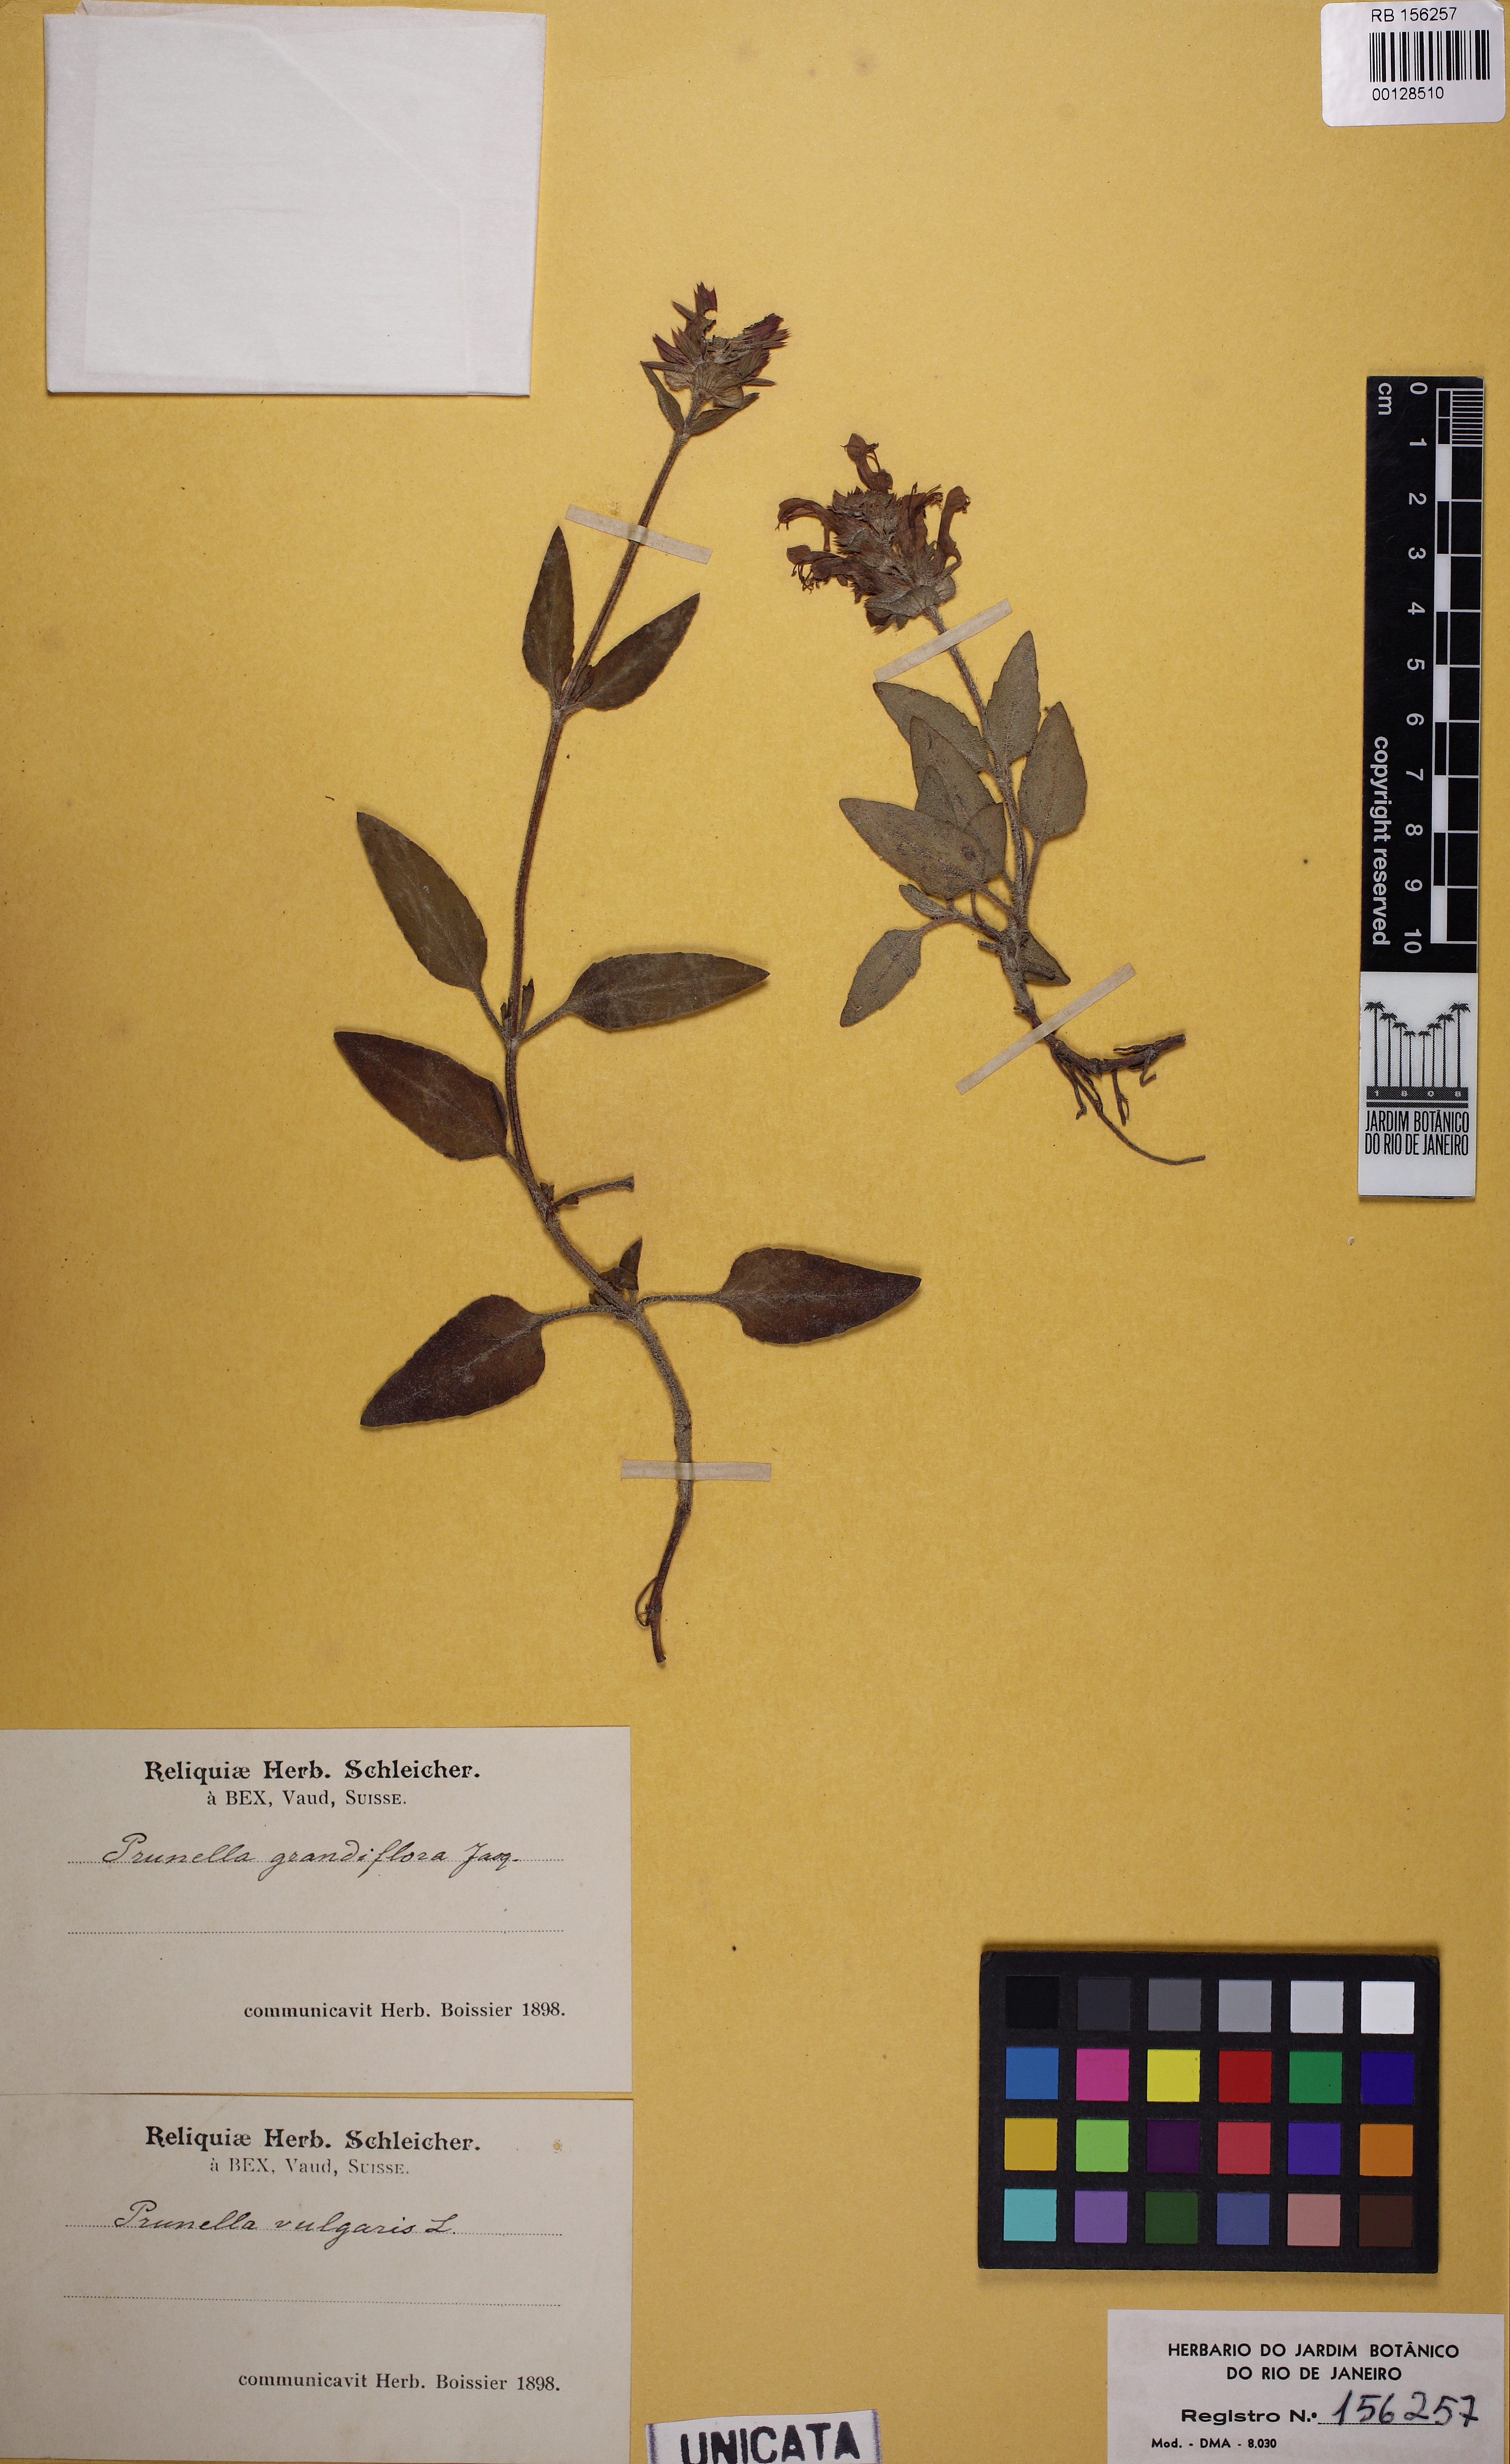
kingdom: Plantae
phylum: Tracheophyta
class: Magnoliopsida
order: Lamiales
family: Lamiaceae
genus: Prunella
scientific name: Prunella vulgaris
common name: Heal-all
